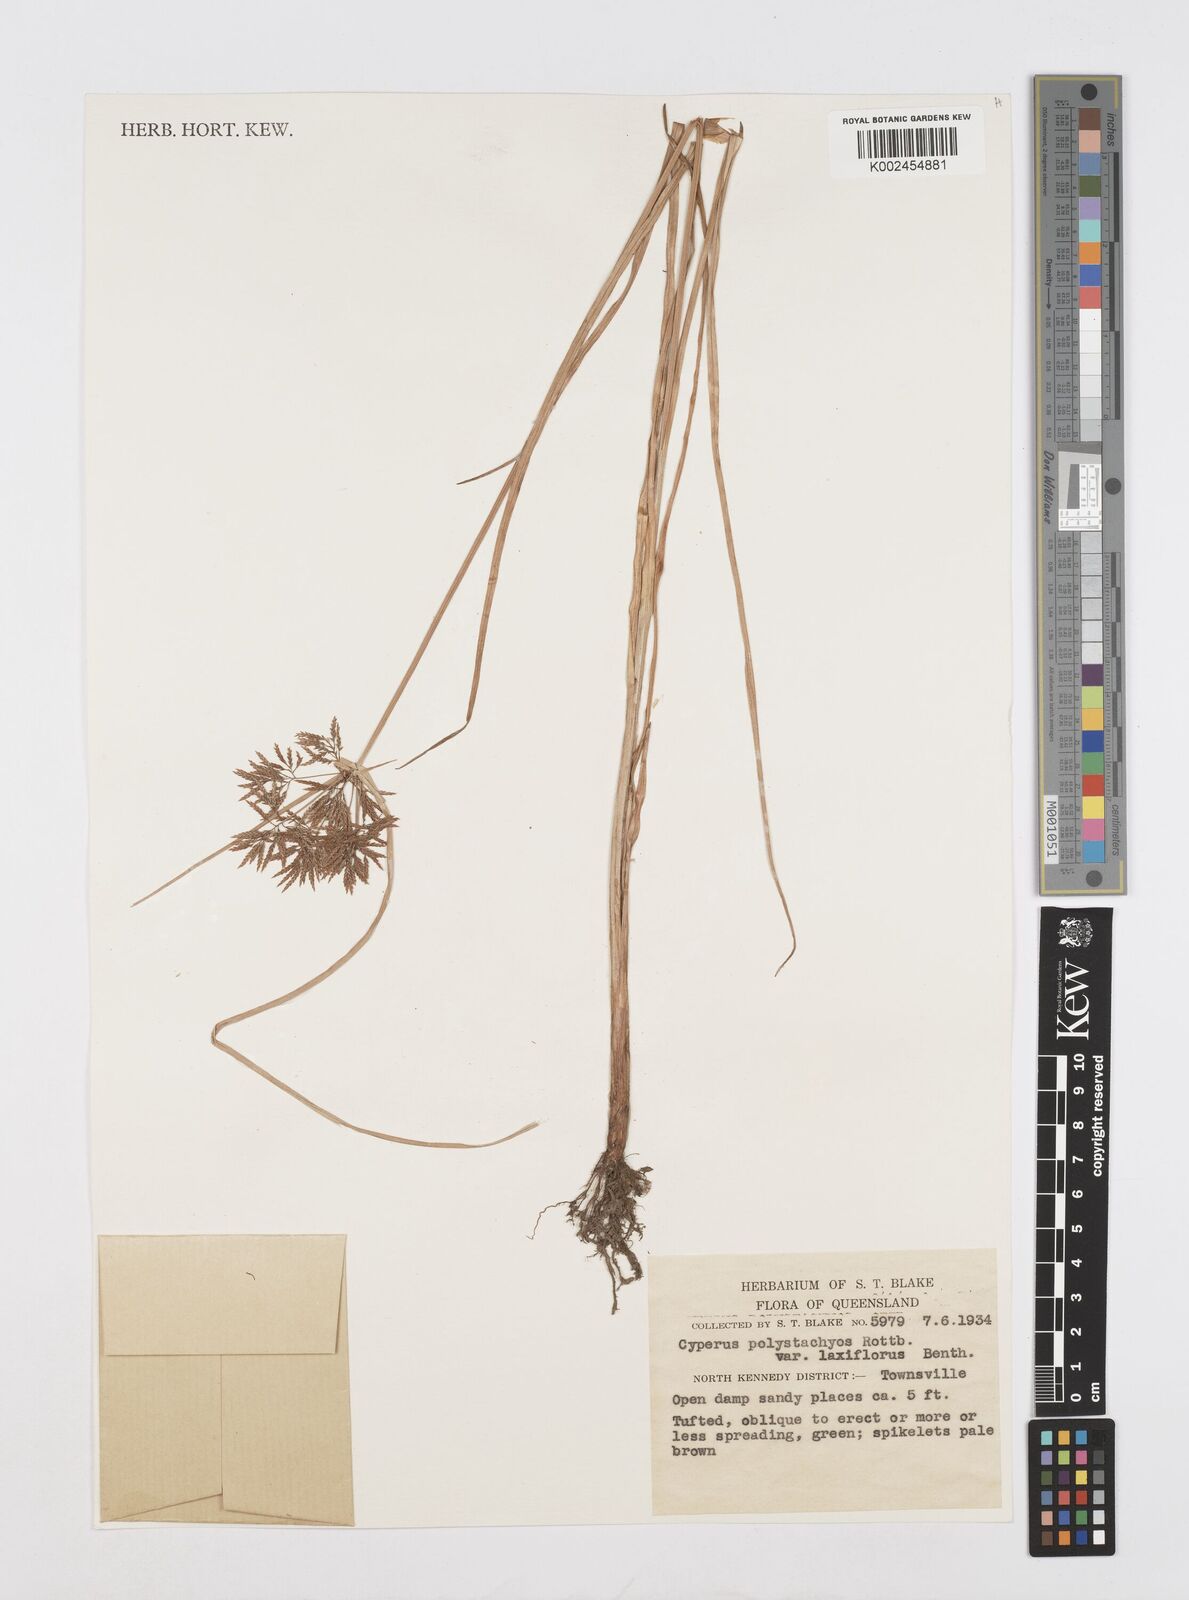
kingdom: Plantae
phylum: Tracheophyta
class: Liliopsida
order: Poales
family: Cyperaceae
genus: Cyperus
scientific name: Cyperus polystachyos
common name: Bunchy flat sedge
